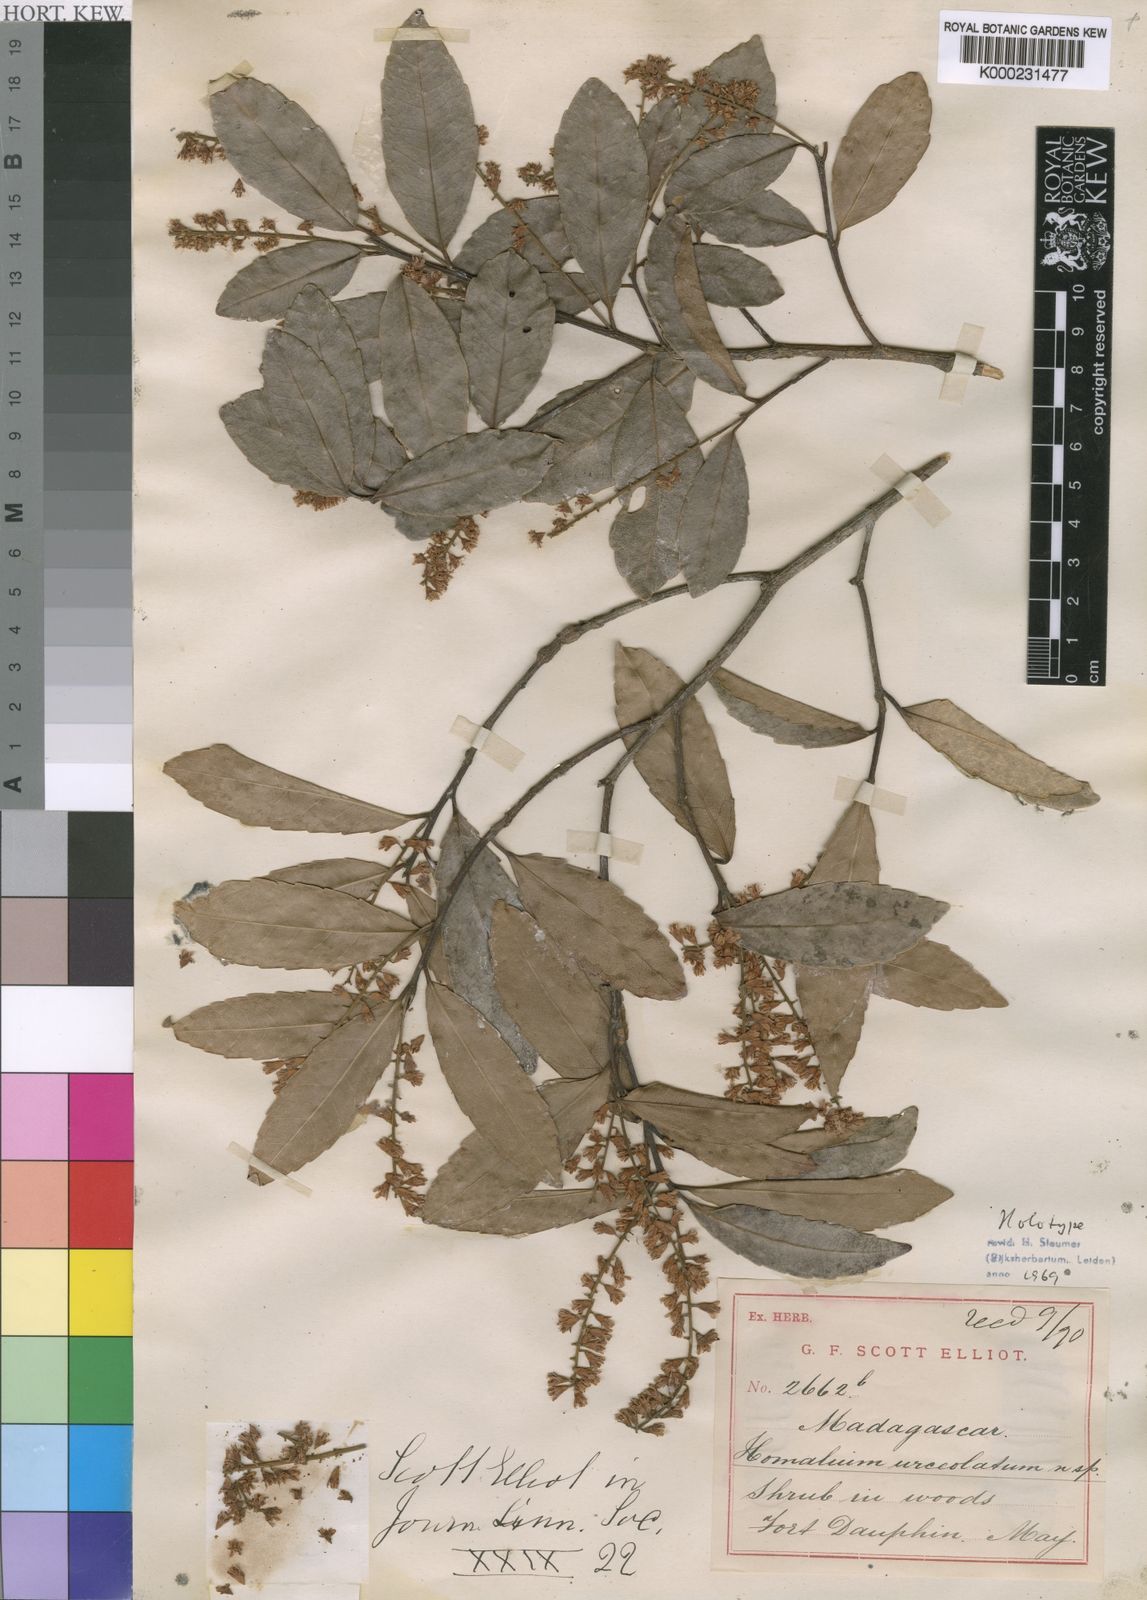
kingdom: Plantae
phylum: Tracheophyta
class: Magnoliopsida
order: Malpighiales
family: Salicaceae
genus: Homalium
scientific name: Homalium trigynum
